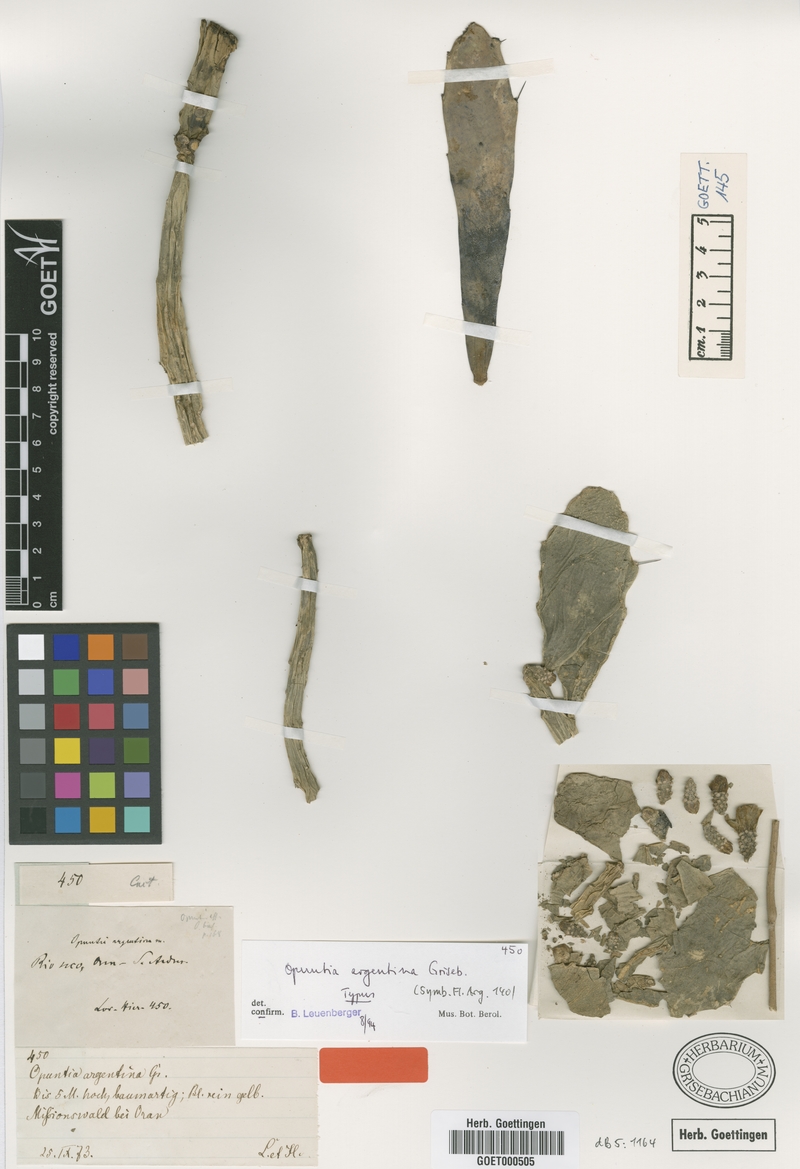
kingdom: Plantae
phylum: Tracheophyta
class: Magnoliopsida
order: Caryophyllales
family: Cactaceae
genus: Brasiliopuntia
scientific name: Brasiliopuntia brasiliensis
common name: Brazilian pricklypear
